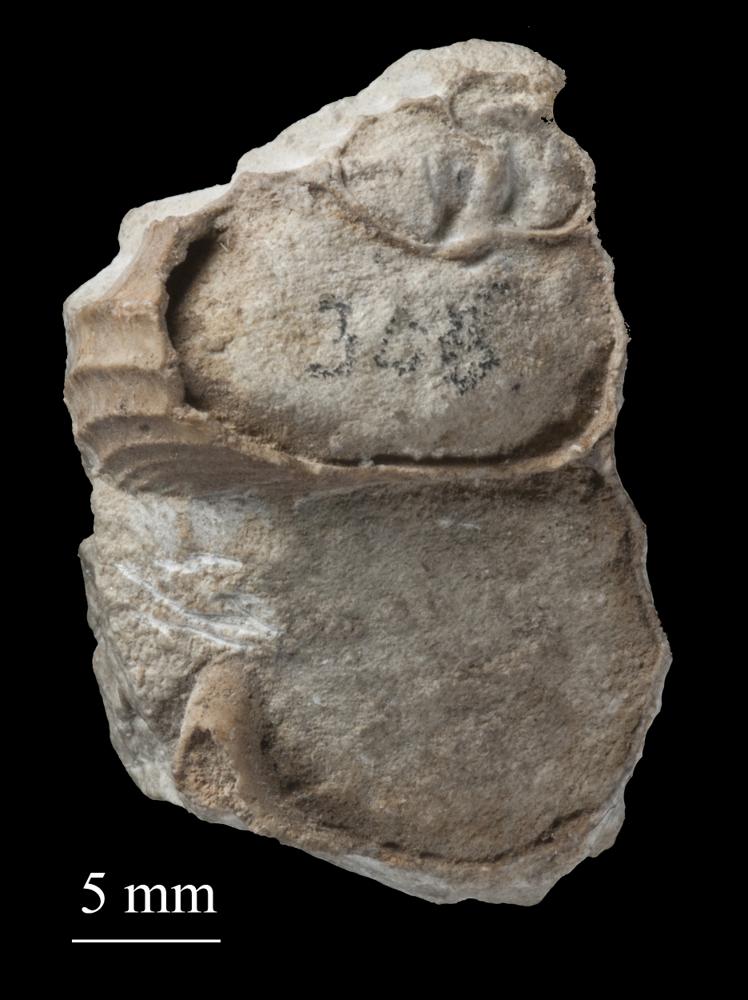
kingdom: Animalia
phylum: Mollusca
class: Gastropoda
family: Platyceratidae
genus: Cyclonema
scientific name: Cyclonema Turbo rupestre
